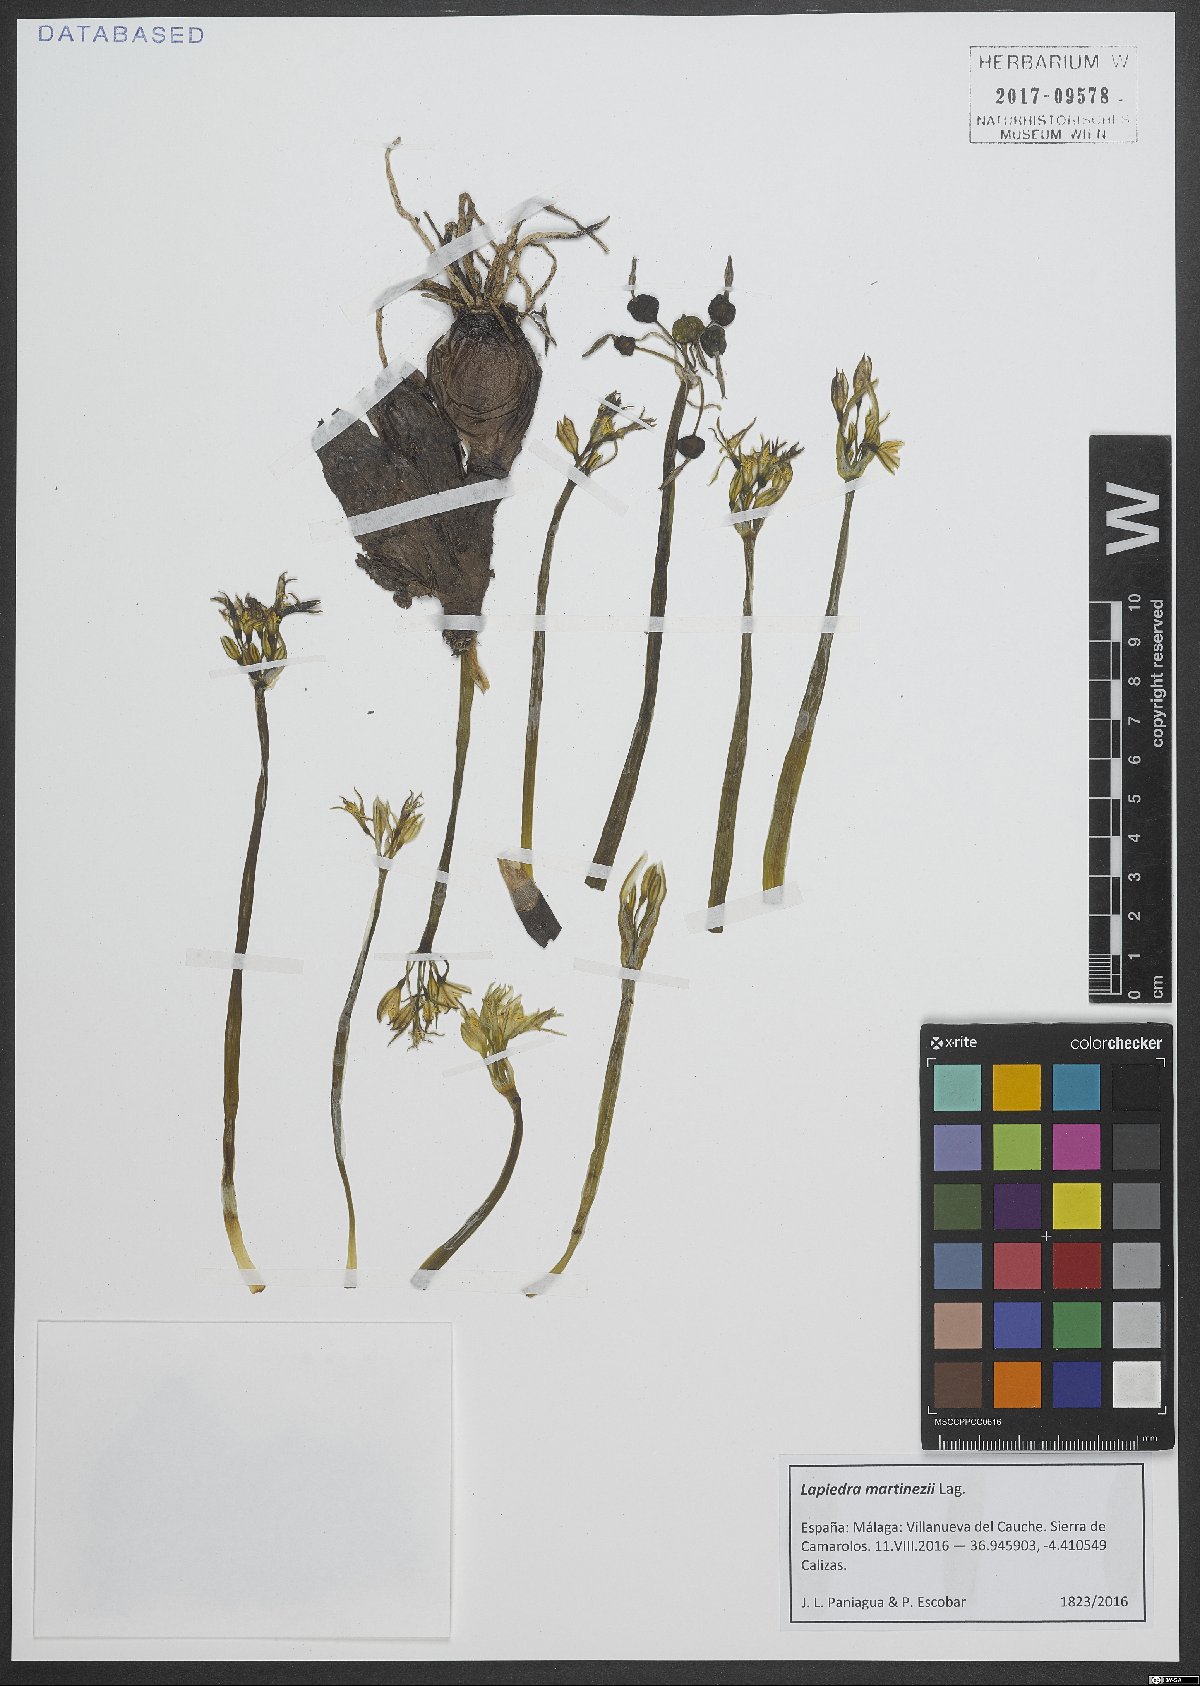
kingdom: Plantae
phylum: Tracheophyta
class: Liliopsida
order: Asparagales
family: Amaryllidaceae
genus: Lapiedra
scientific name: Lapiedra martinezii
